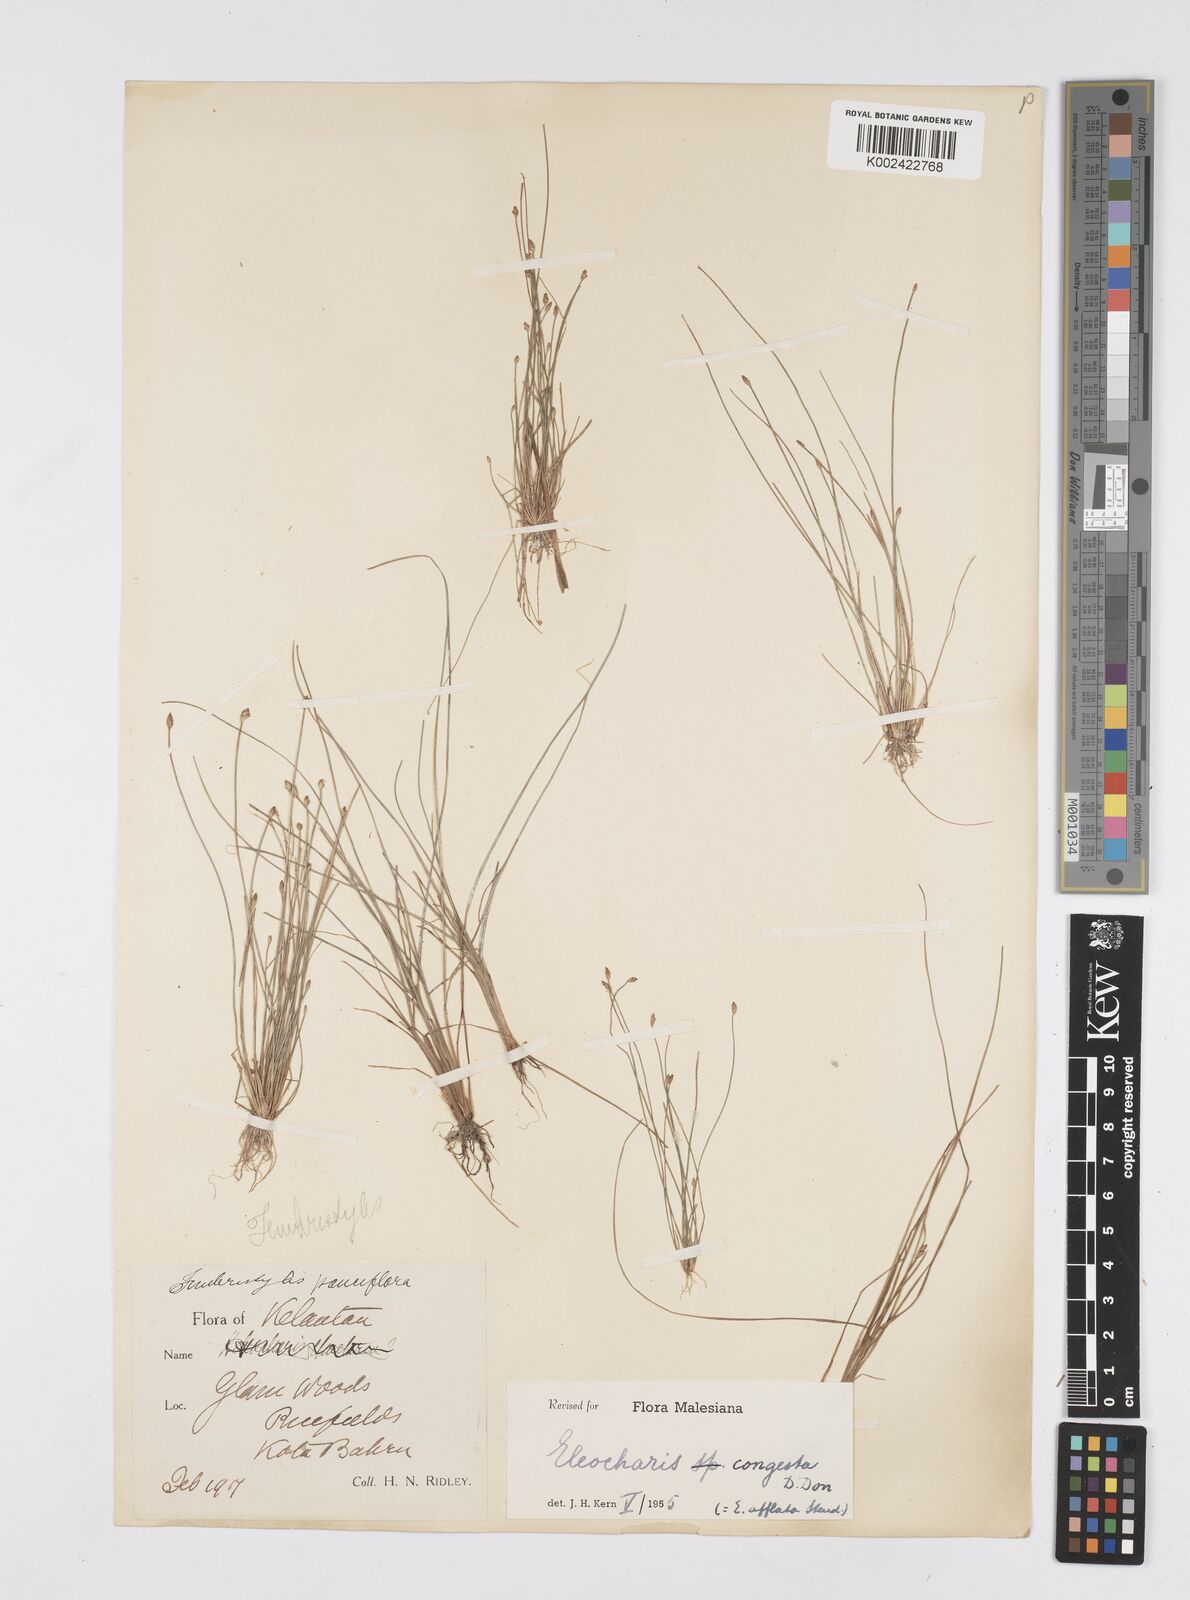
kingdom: Plantae
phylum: Tracheophyta
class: Liliopsida
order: Poales
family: Cyperaceae
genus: Eleocharis
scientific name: Eleocharis congesta
